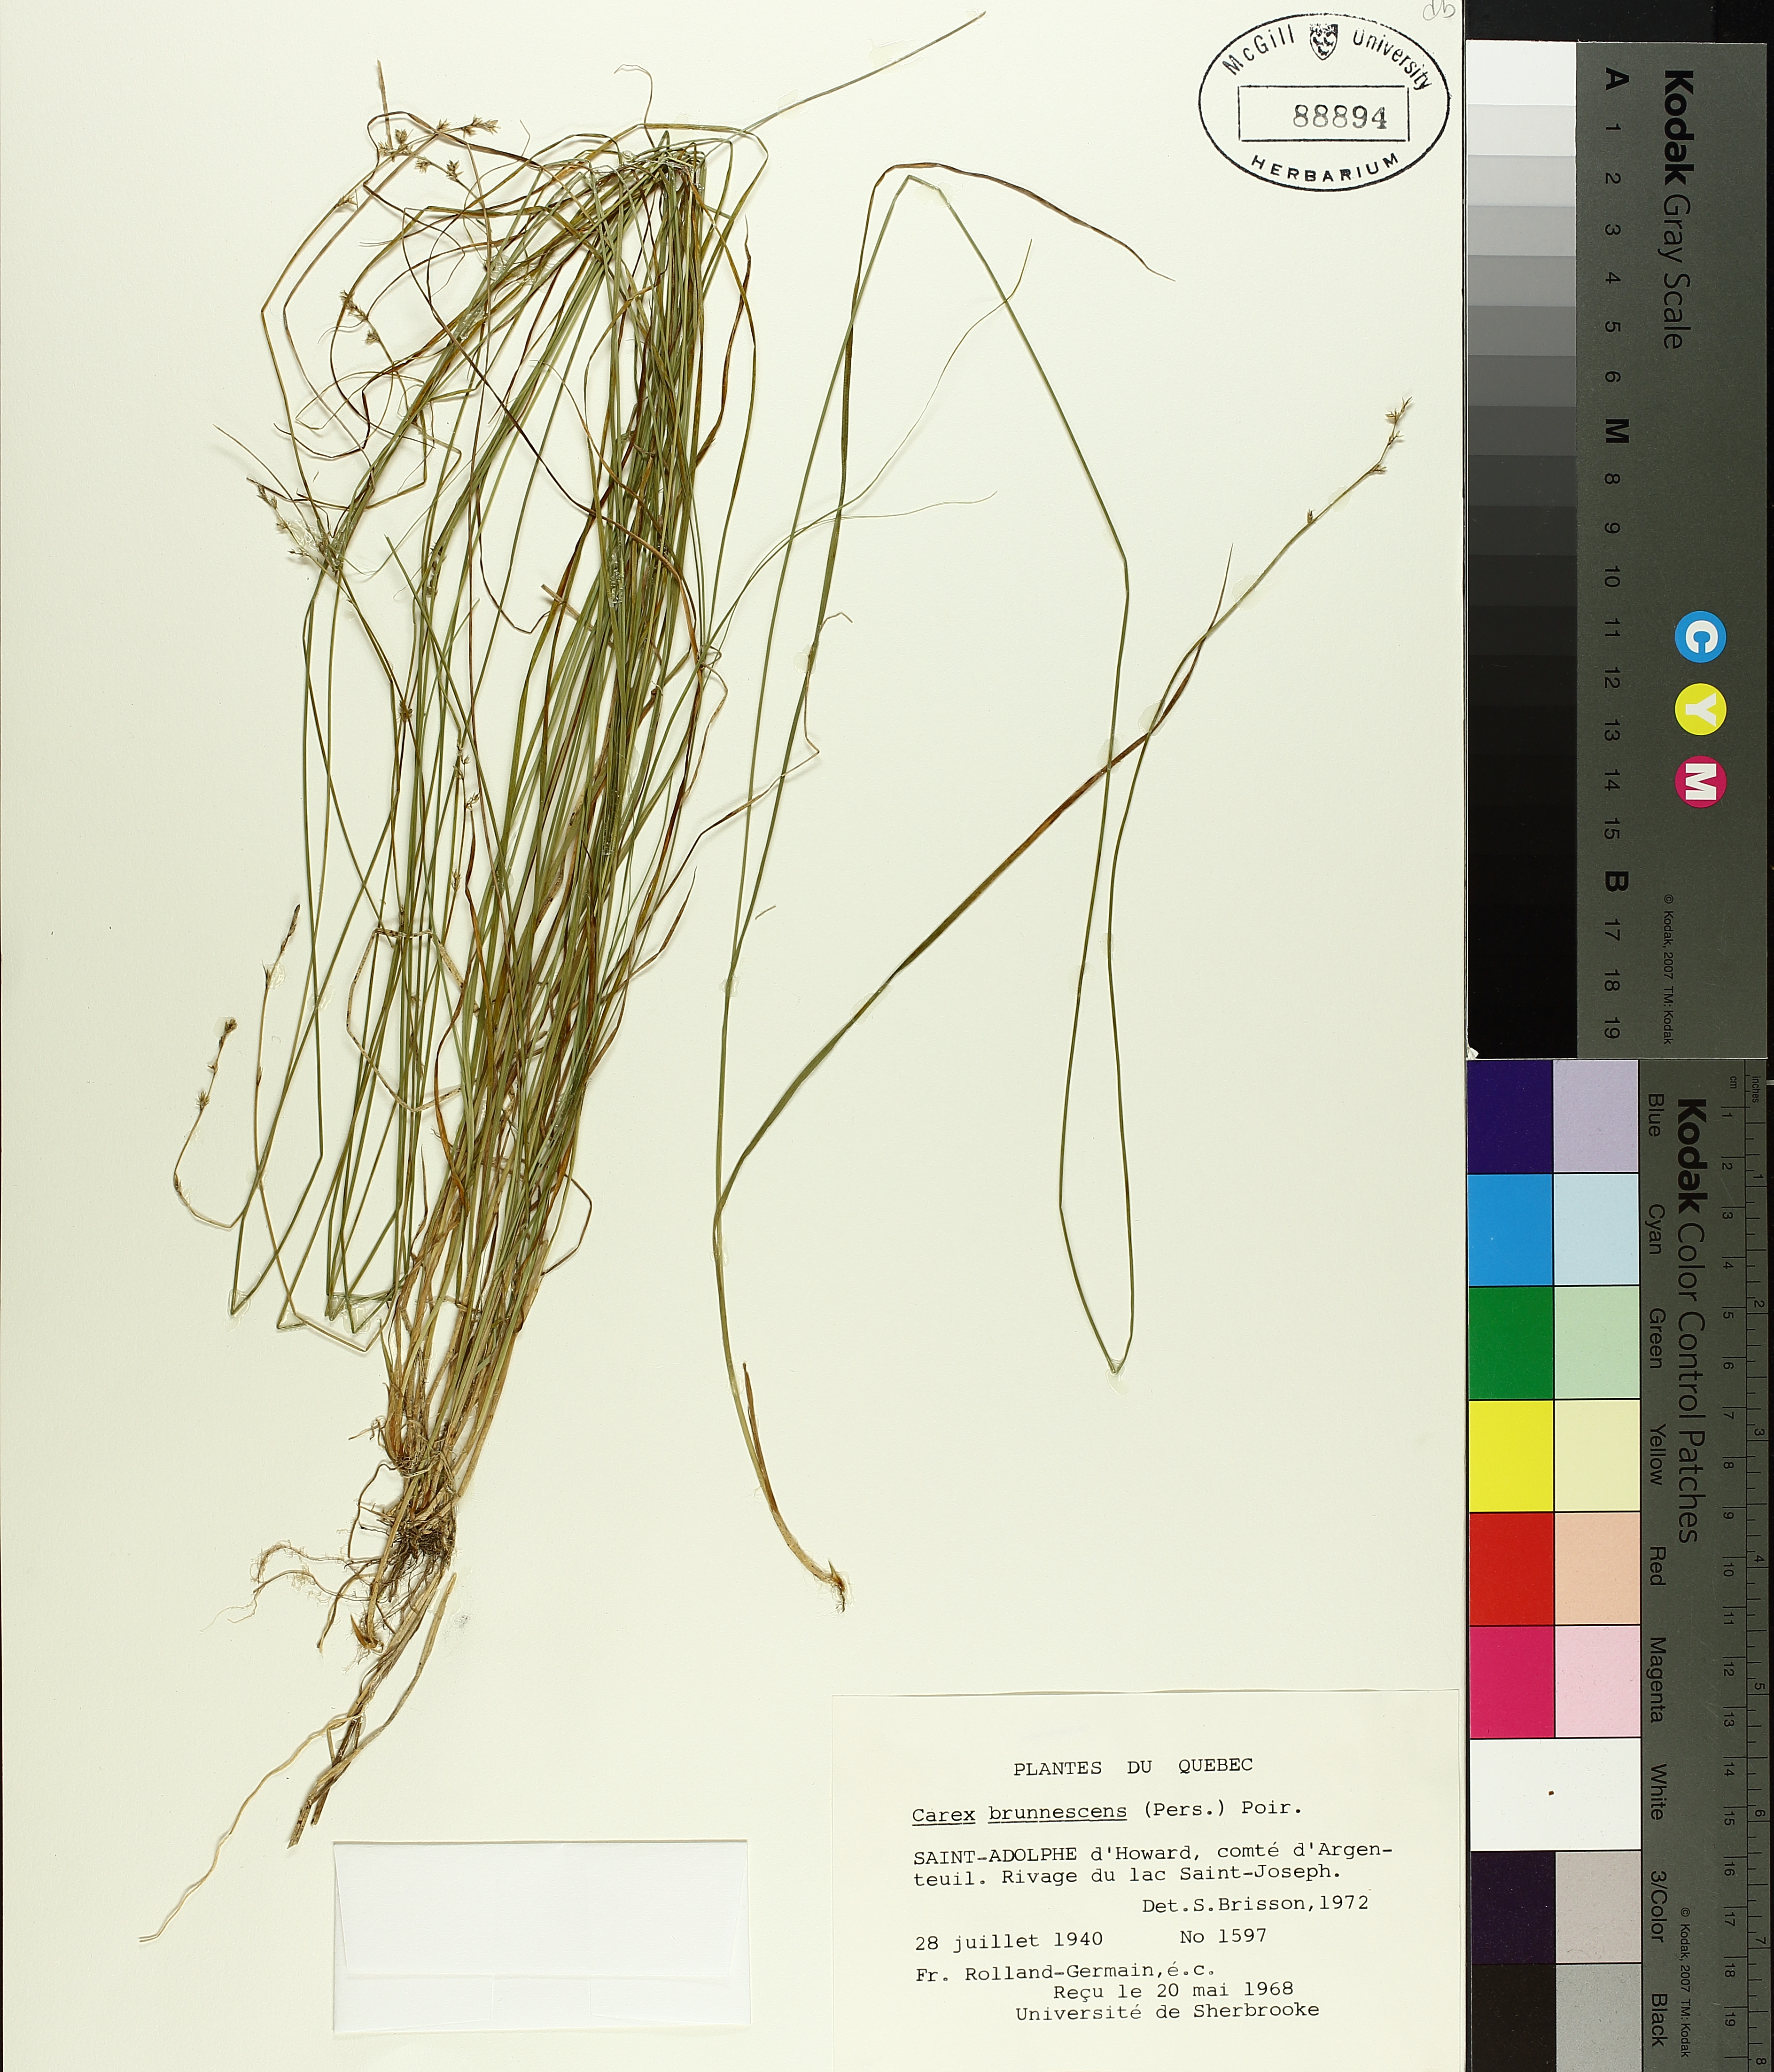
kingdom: Plantae
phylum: Tracheophyta
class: Liliopsida
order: Poales
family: Cyperaceae
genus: Carex
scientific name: Carex brunnescens
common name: Brown sedge
